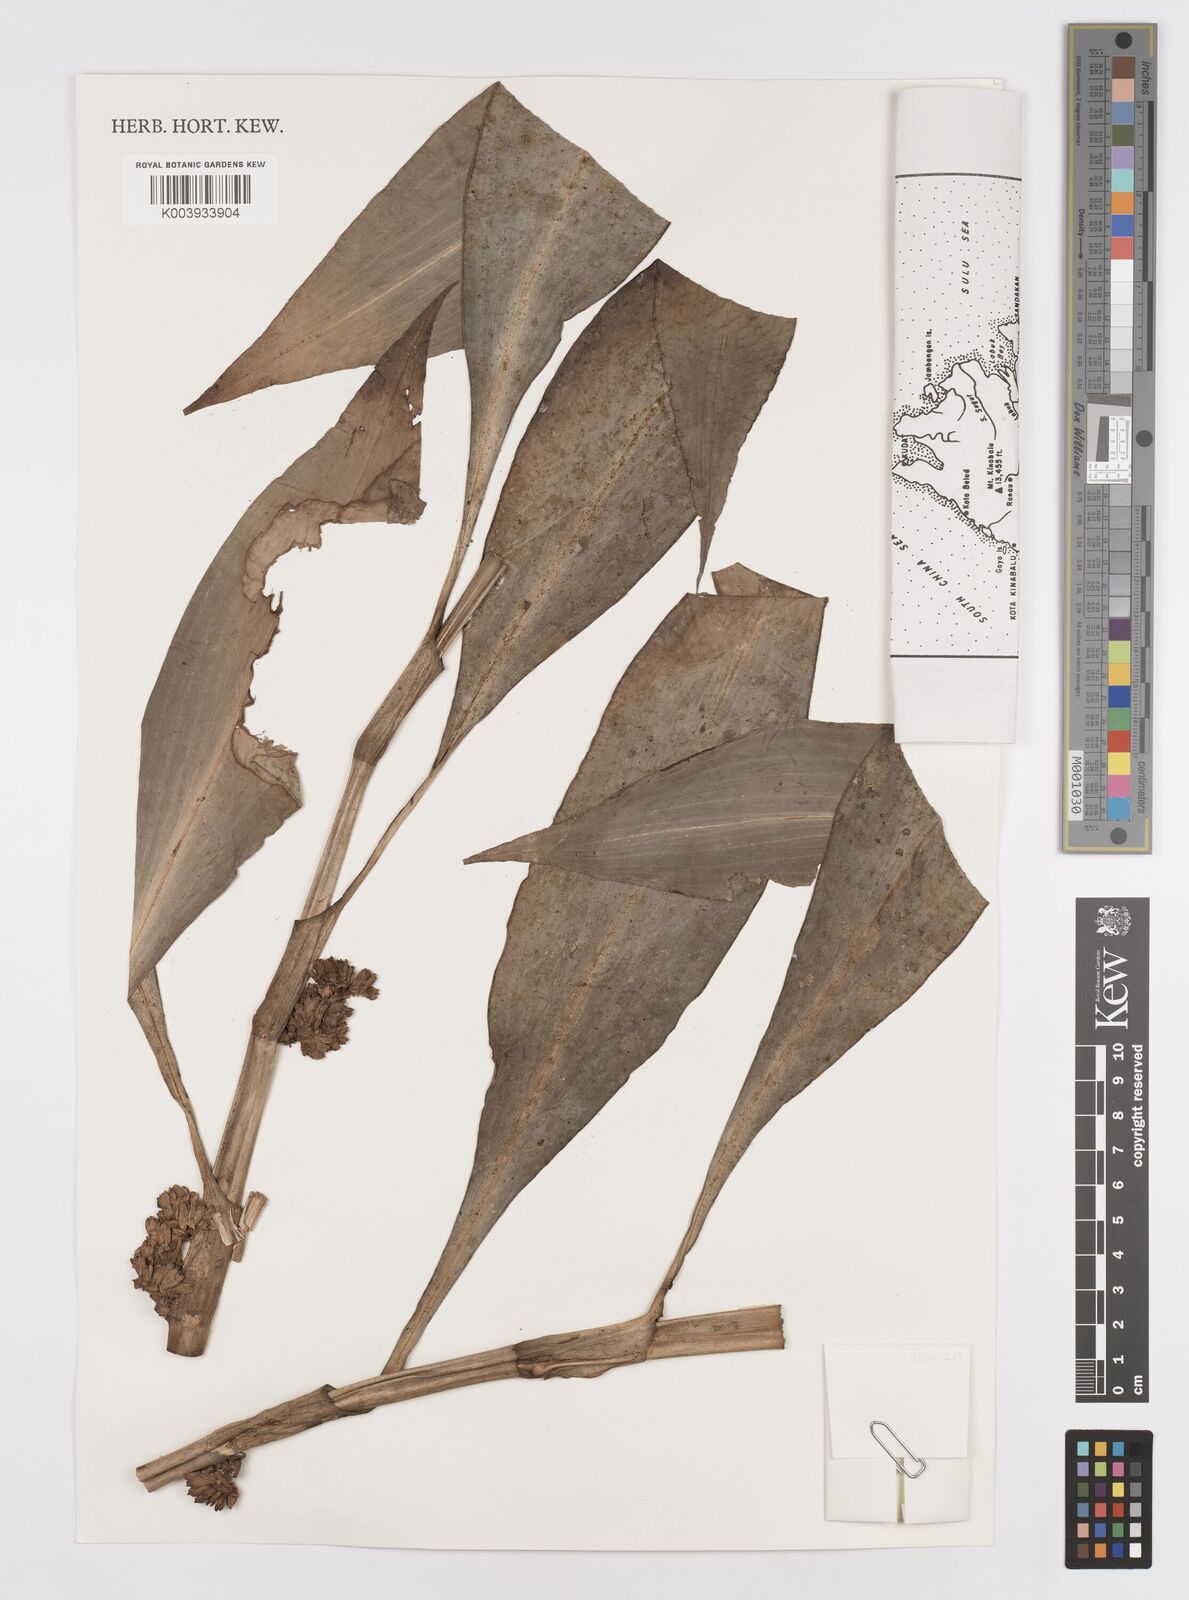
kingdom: Plantae
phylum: Tracheophyta
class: Liliopsida
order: Commelinales
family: Commelinaceae
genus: Amischotolype
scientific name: Amischotolype glabrata
